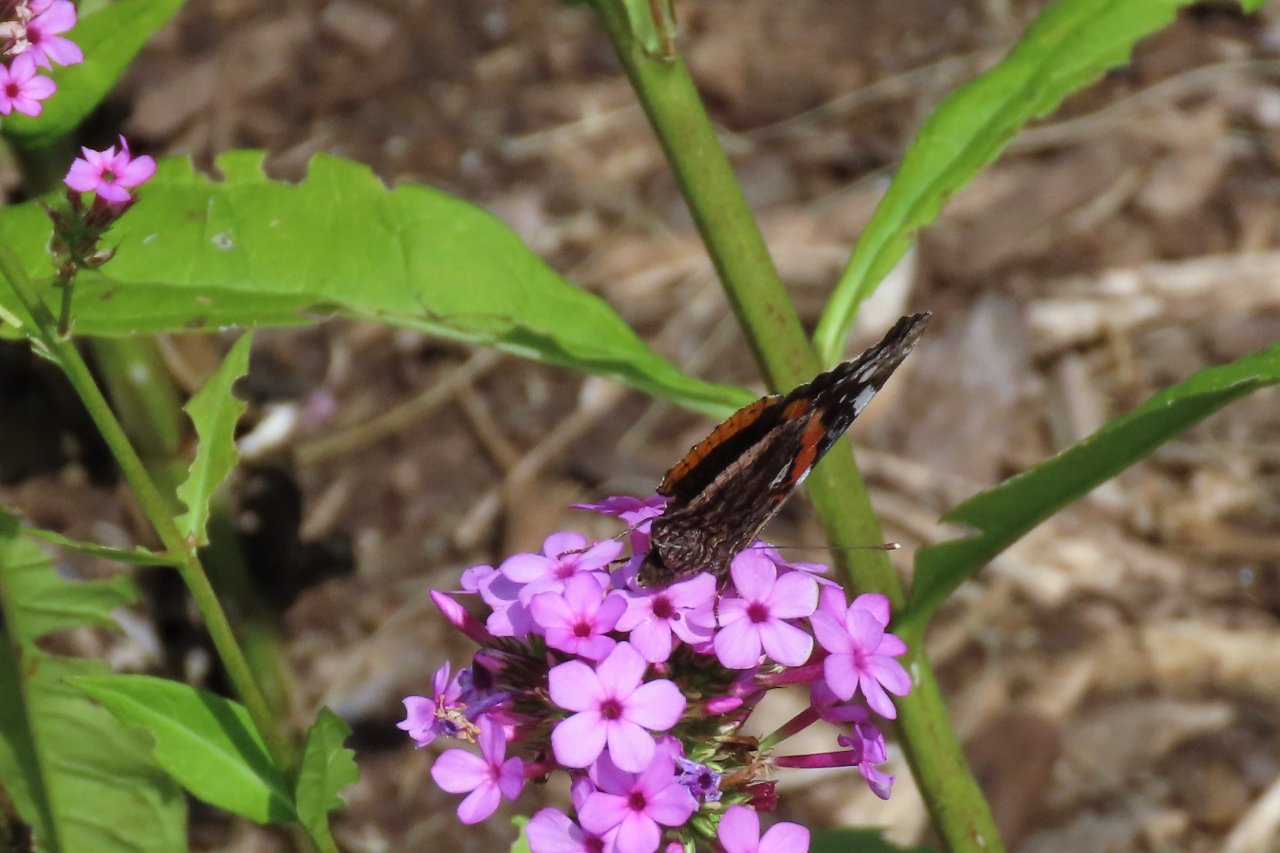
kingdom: Animalia
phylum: Arthropoda
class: Insecta
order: Lepidoptera
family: Nymphalidae
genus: Vanessa
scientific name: Vanessa atalanta
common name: Red Admiral
